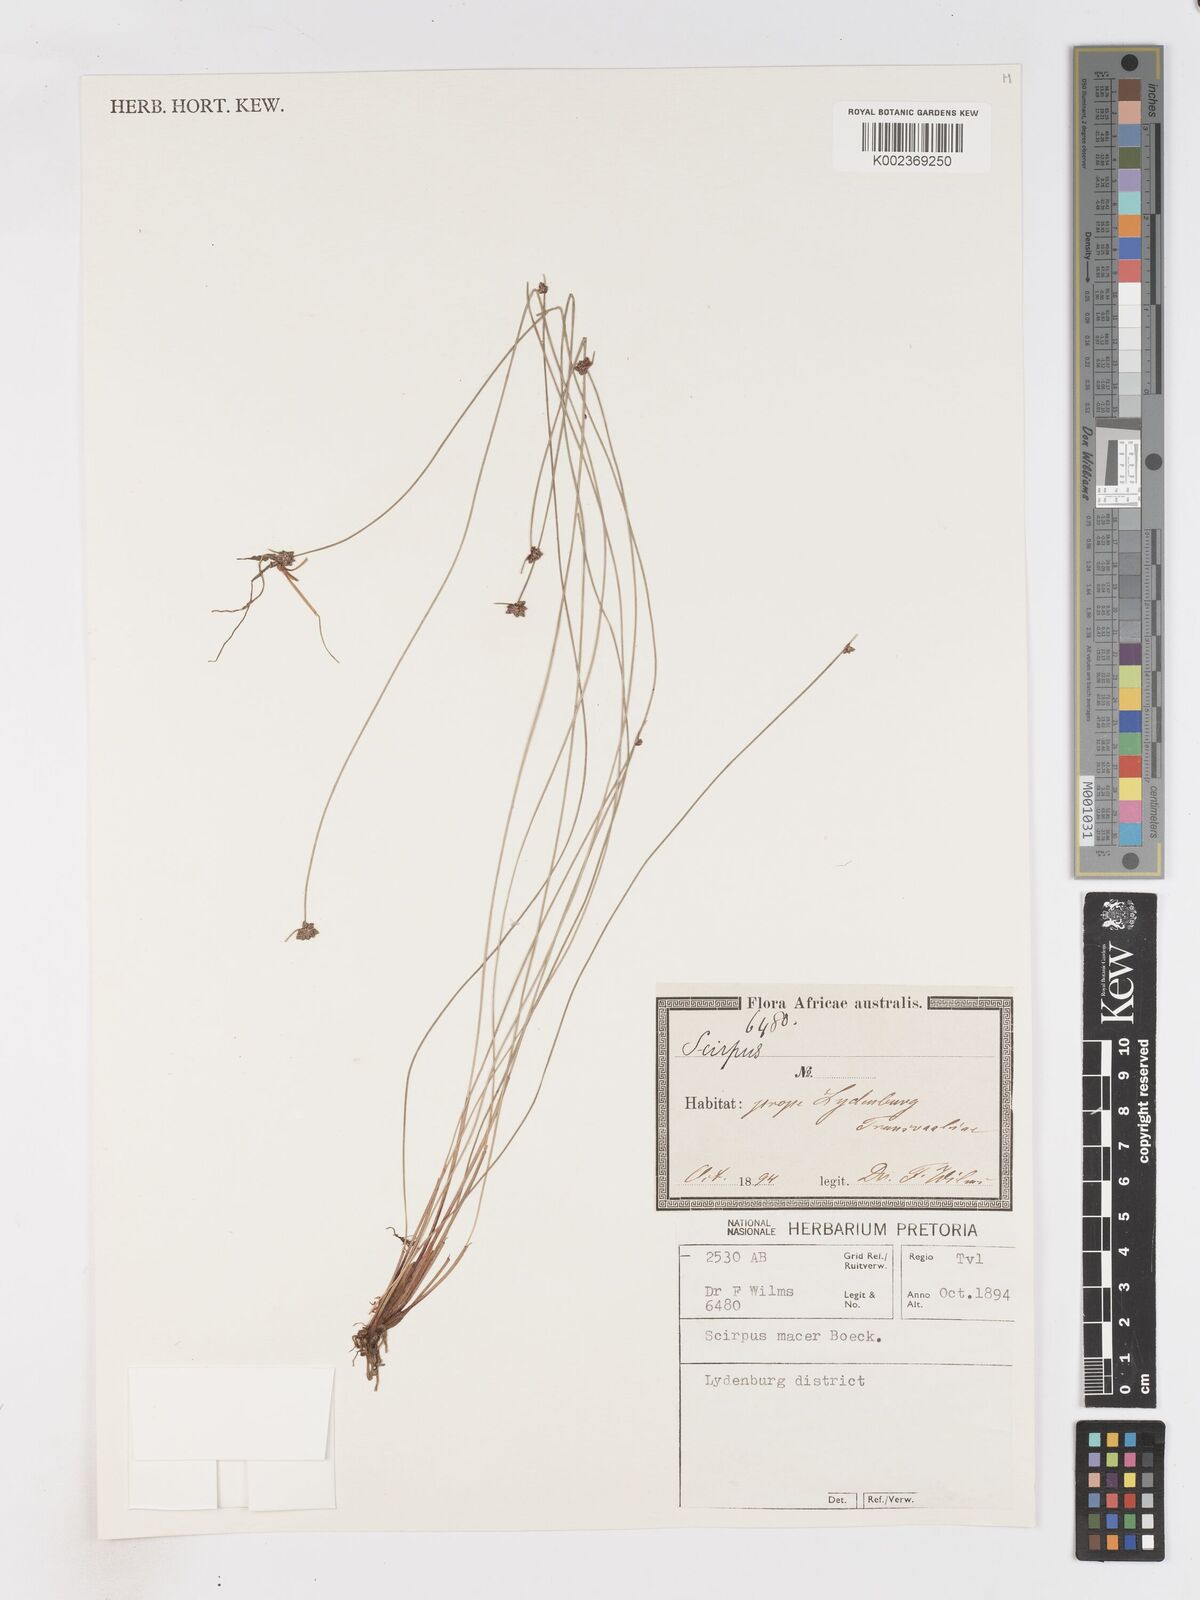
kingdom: Plantae
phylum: Tracheophyta
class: Liliopsida
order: Poales
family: Cyperaceae
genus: Isolepis
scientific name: Isolepis costata
